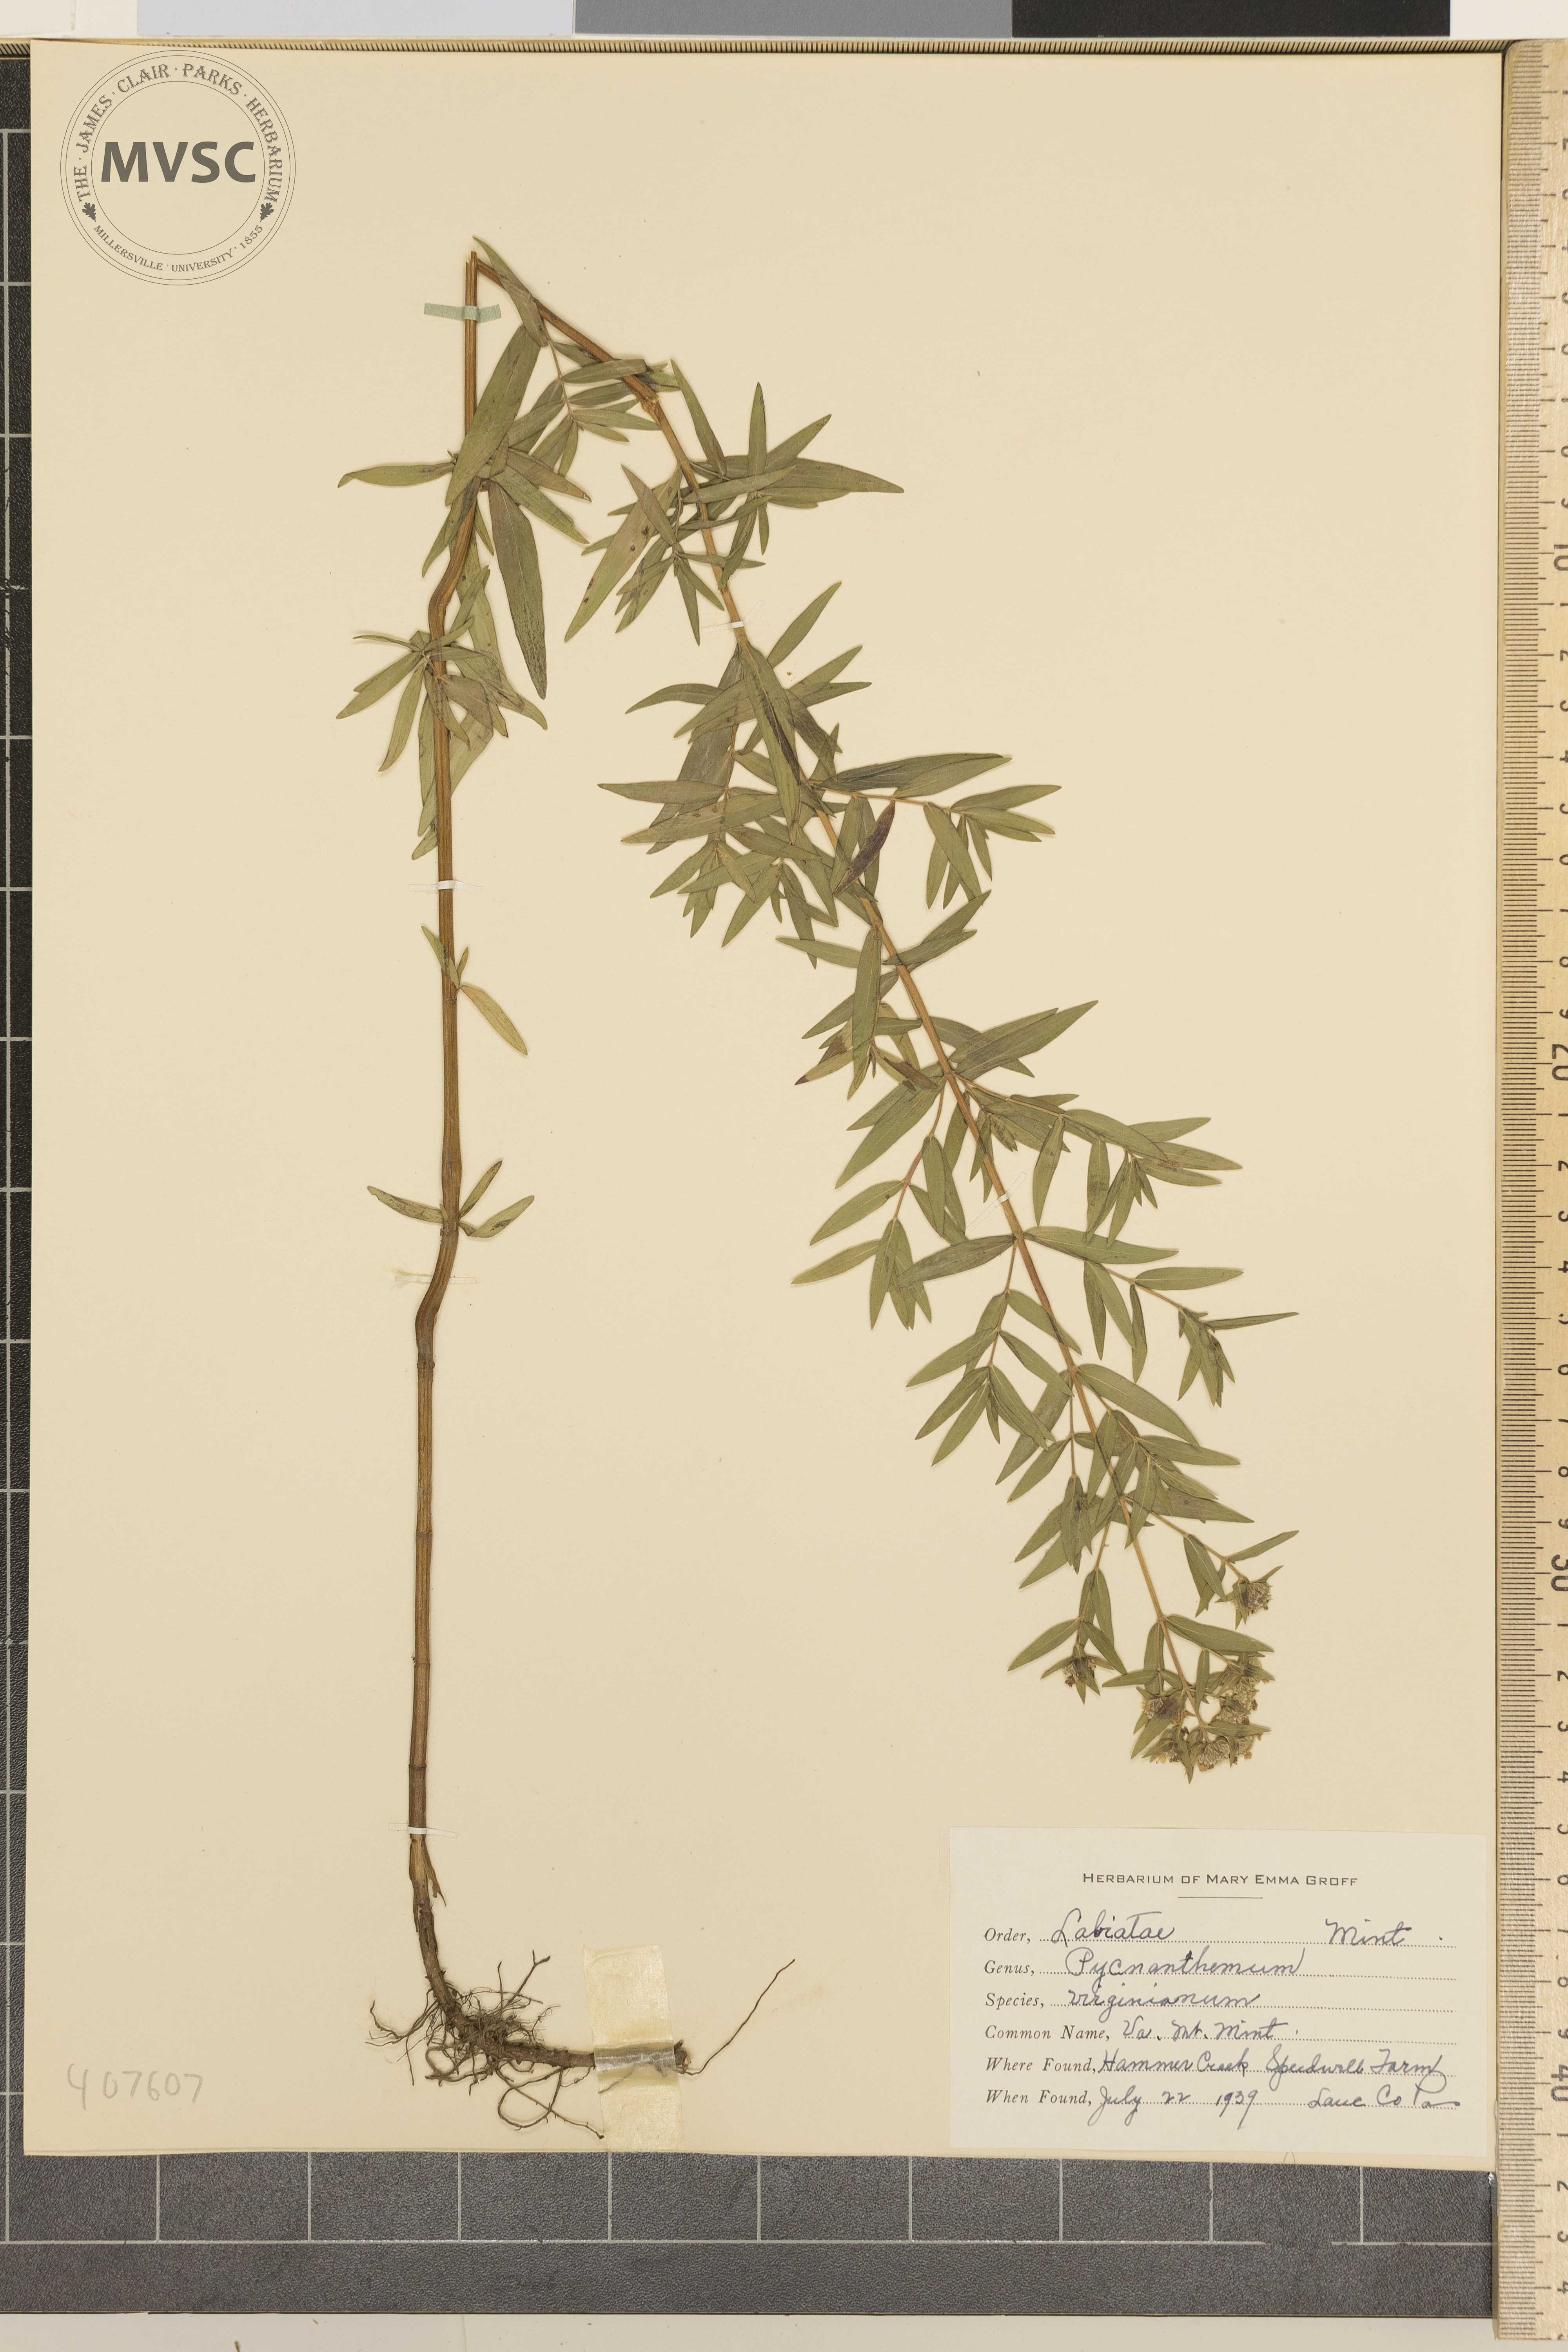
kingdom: Plantae
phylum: Tracheophyta
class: Magnoliopsida
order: Lamiales
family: Lamiaceae
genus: Pycnanthemum
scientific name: Pycnanthemum virginianum
